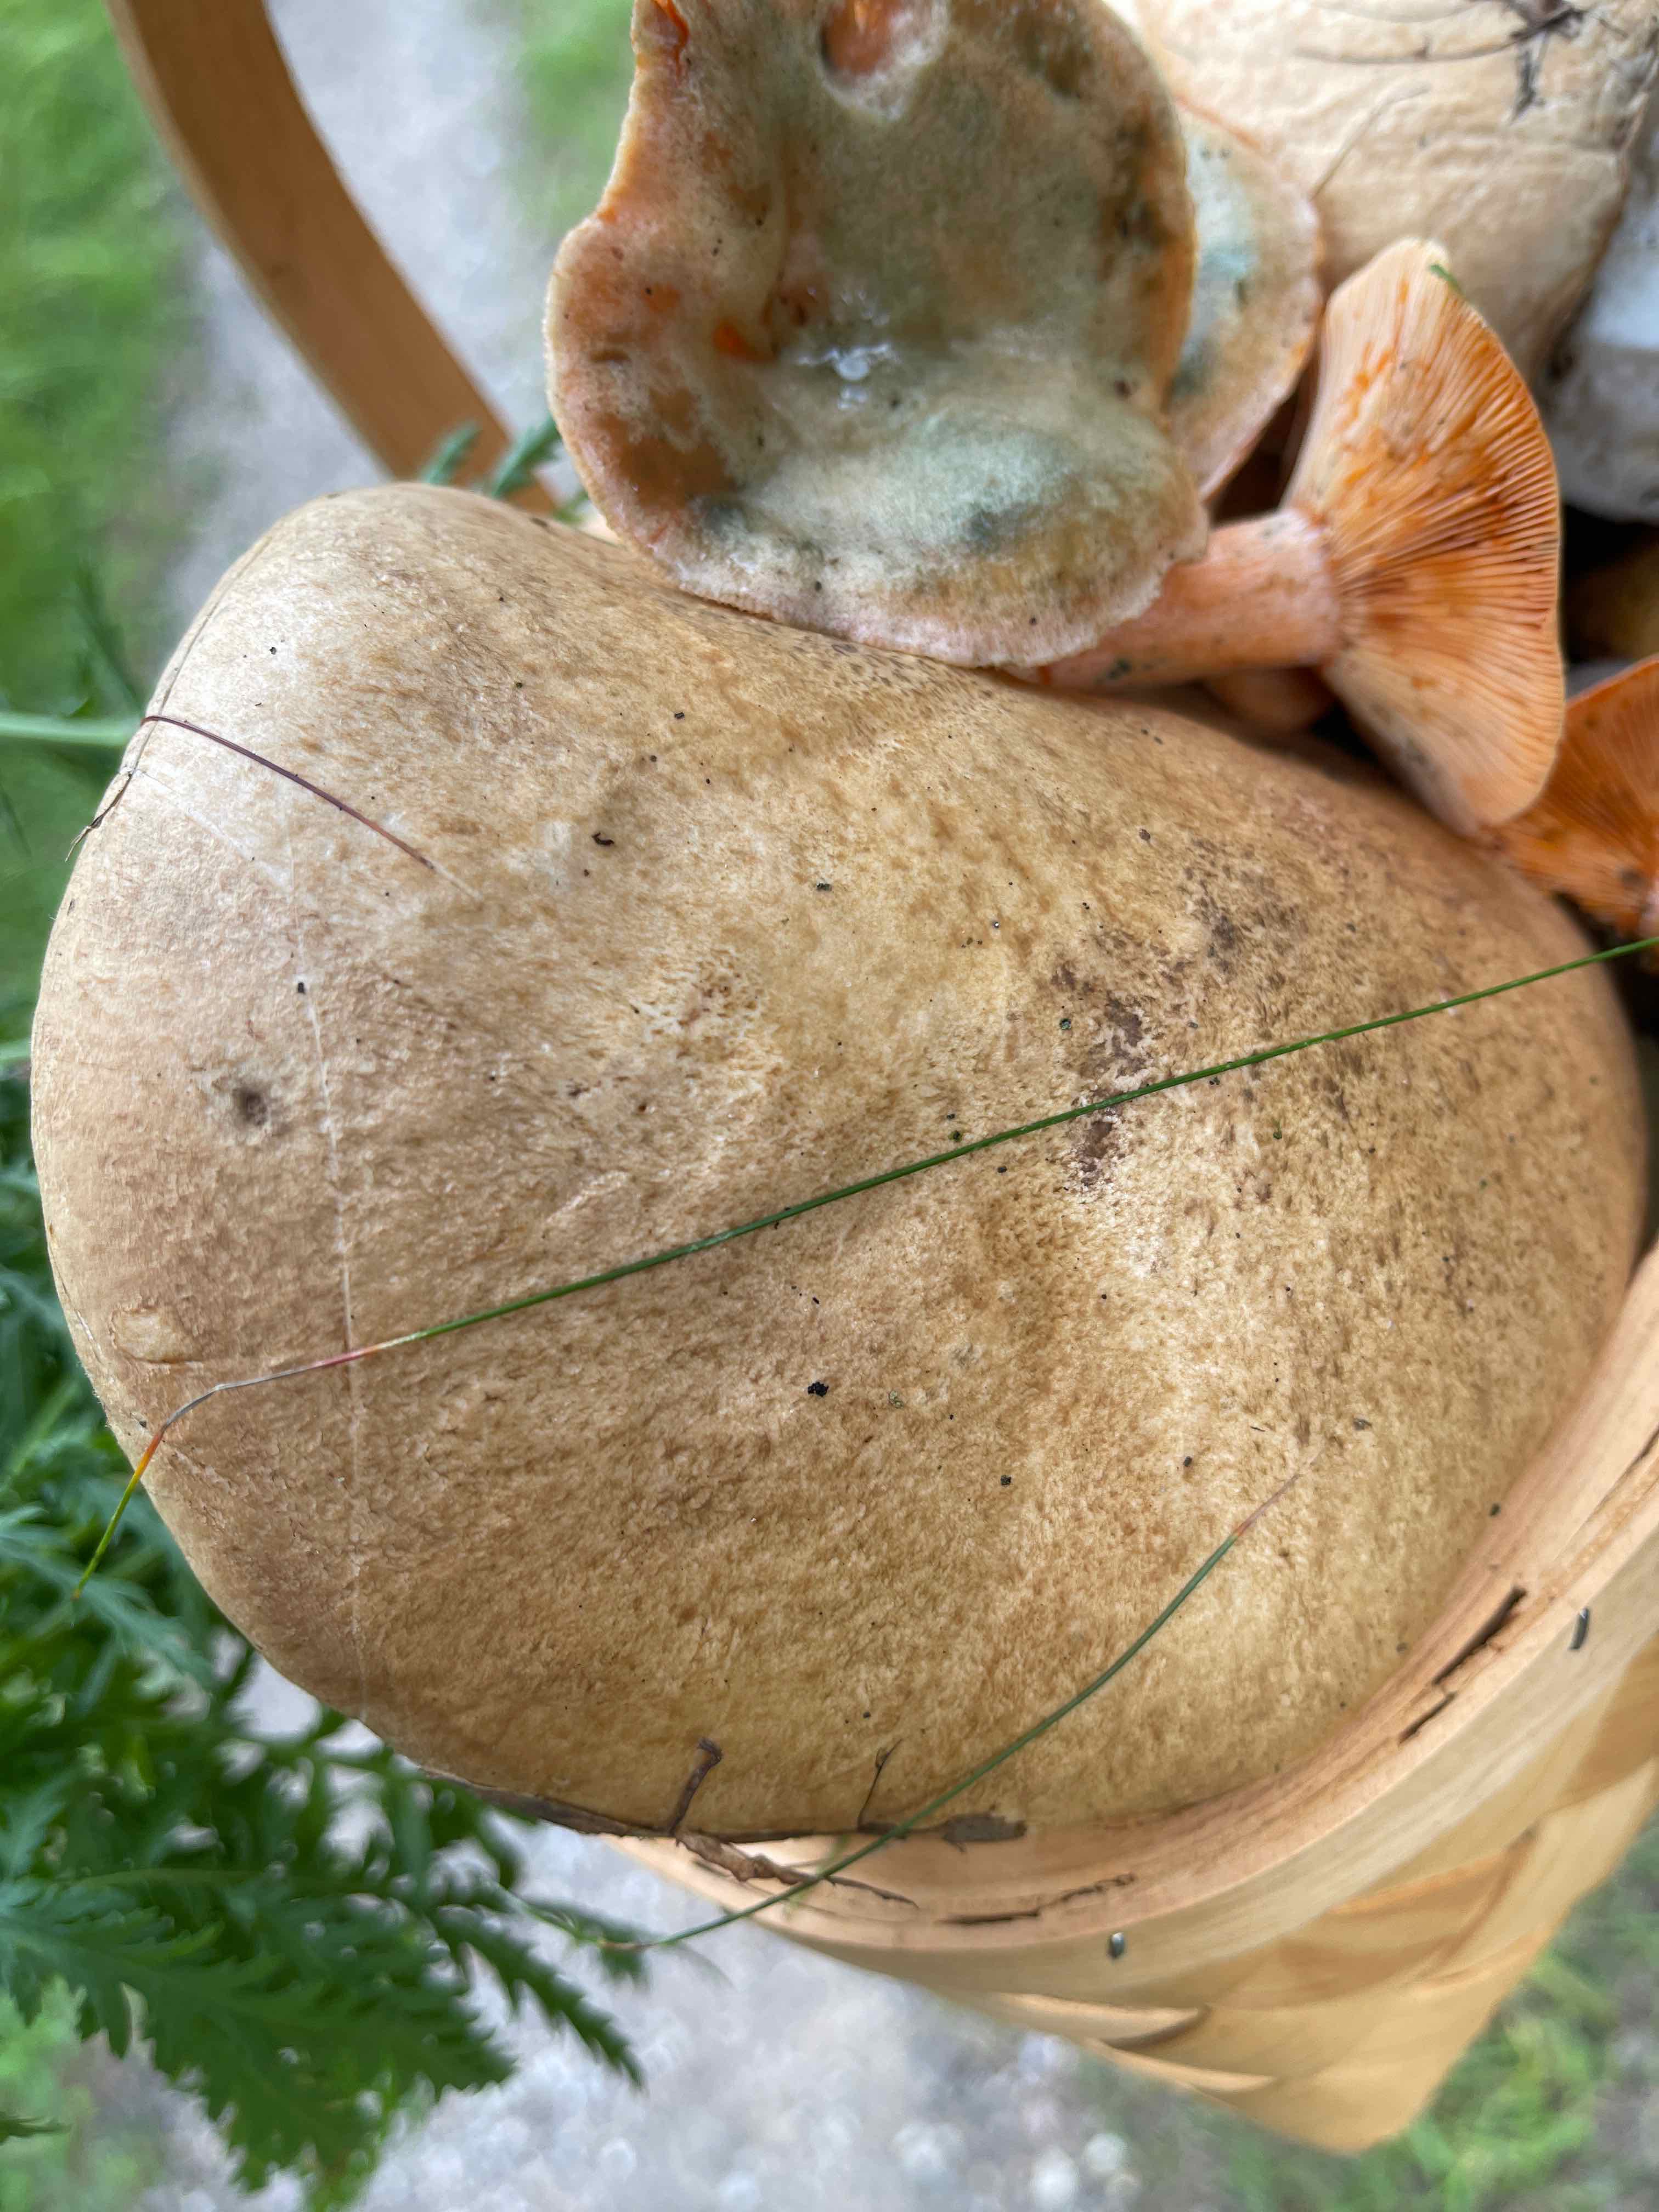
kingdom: Fungi
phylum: Basidiomycota
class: Agaricomycetes
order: Boletales
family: Boletaceae
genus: Leccinum
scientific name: Leccinum scabrum
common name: brun skælrørhat
